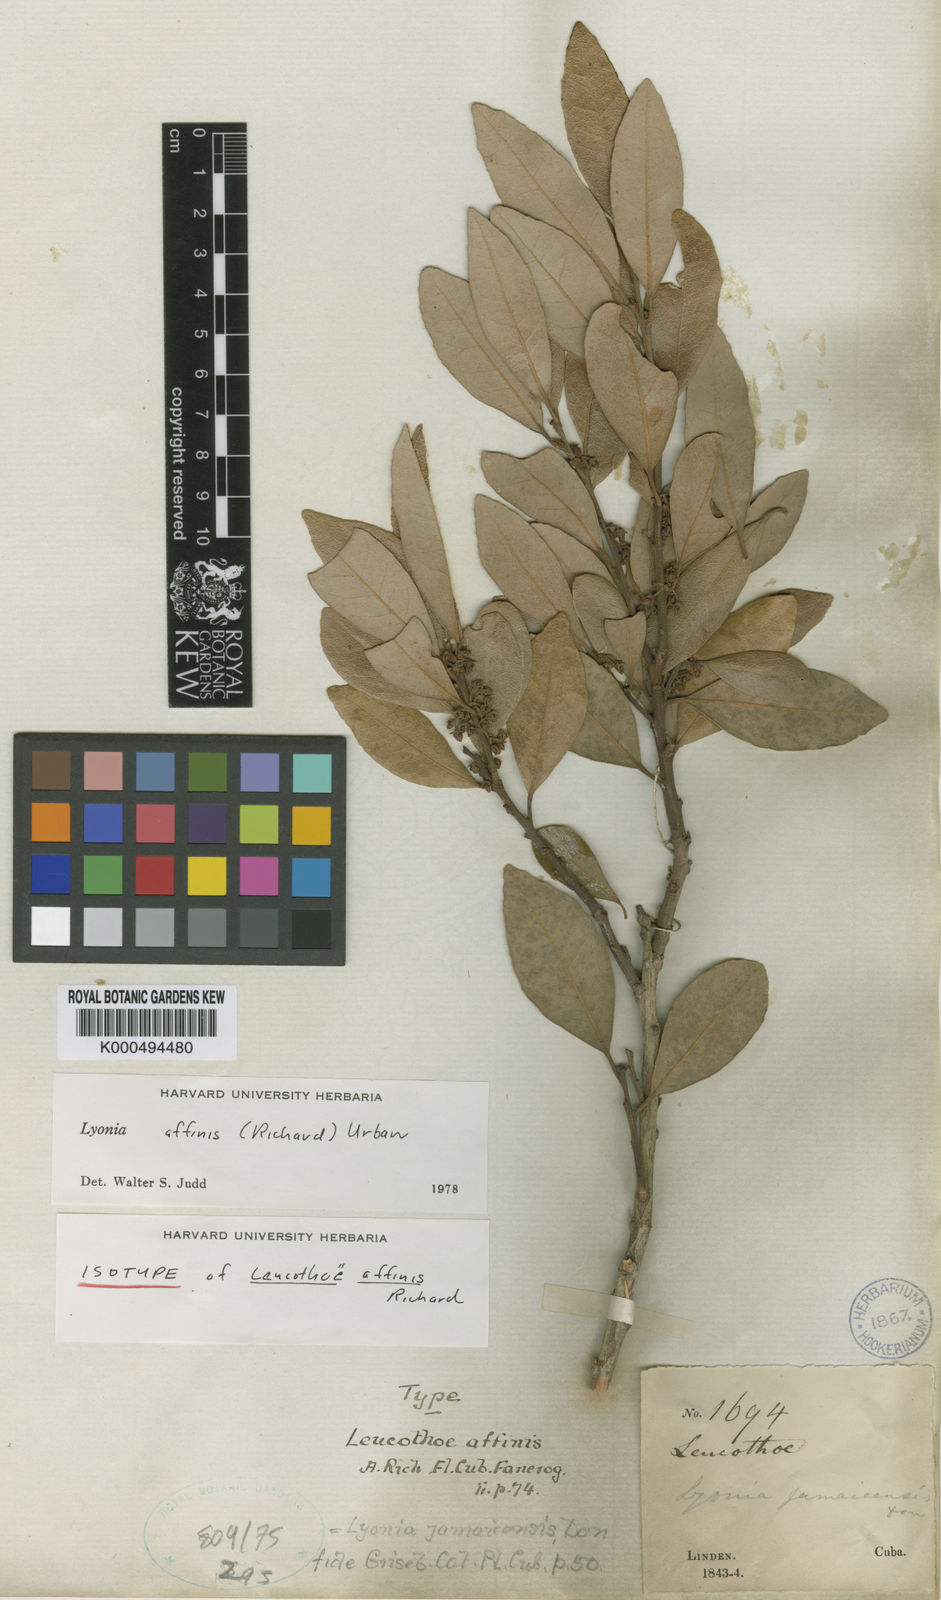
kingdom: Plantae
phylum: Tracheophyta
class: Magnoliopsida
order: Ericales
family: Ericaceae
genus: Lyonia
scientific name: Lyonia affinis
